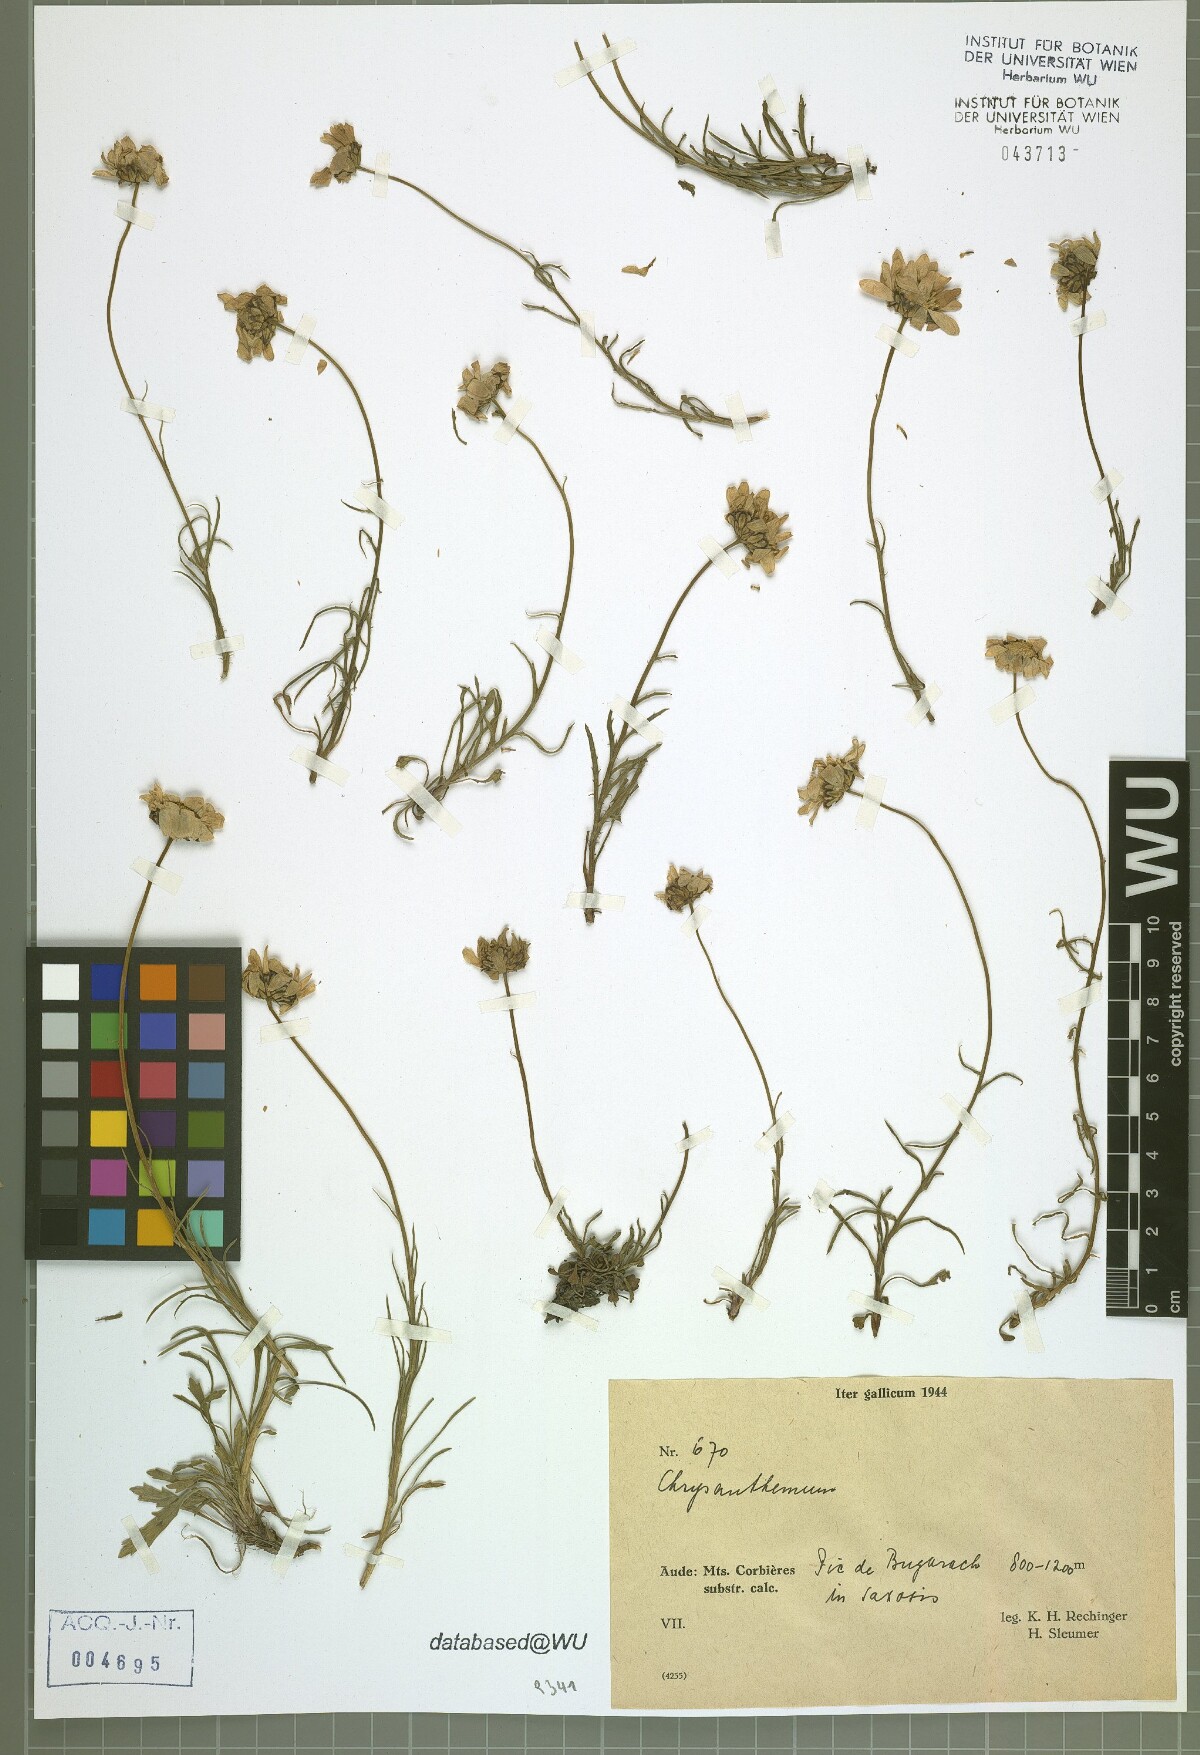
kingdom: Plantae
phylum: Tracheophyta
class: Magnoliopsida
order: Asterales
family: Asteraceae
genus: Leucanthemopsis
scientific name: Leucanthemopsis alpina
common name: Alpine moon daisy
